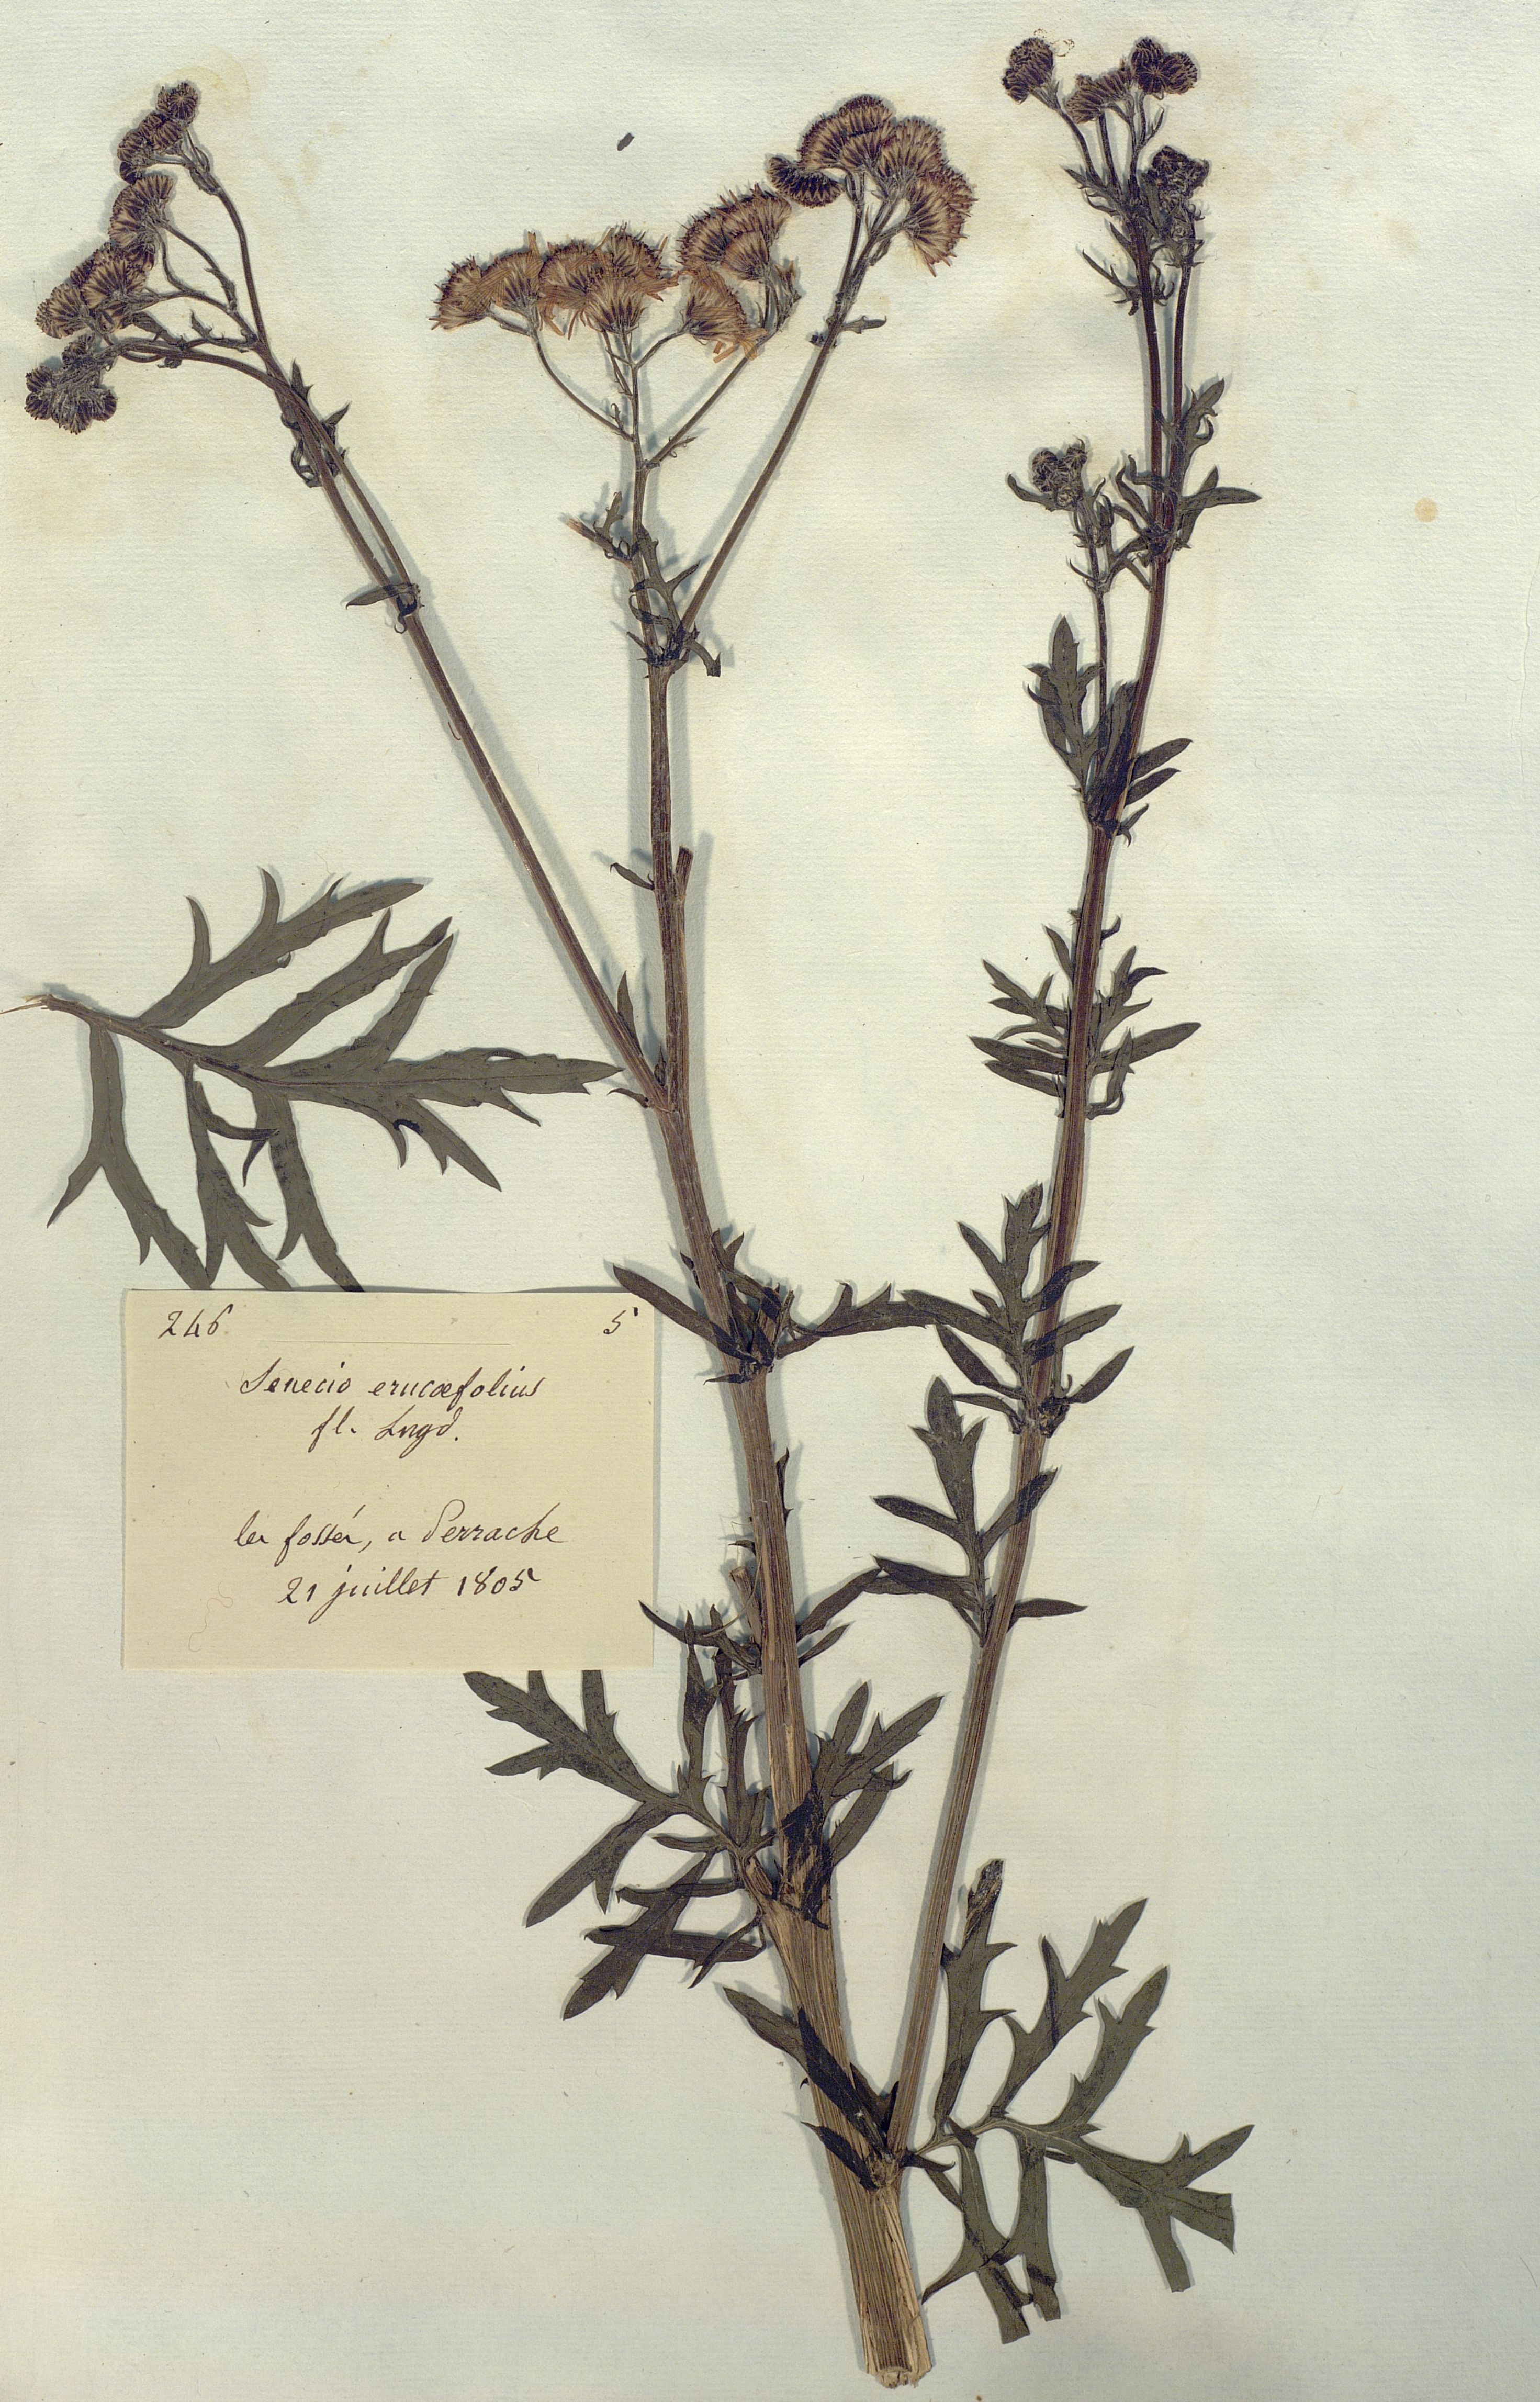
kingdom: Plantae
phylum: Tracheophyta
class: Magnoliopsida
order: Asterales
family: Asteraceae
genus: Senecio
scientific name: Senecio erucaefolius
